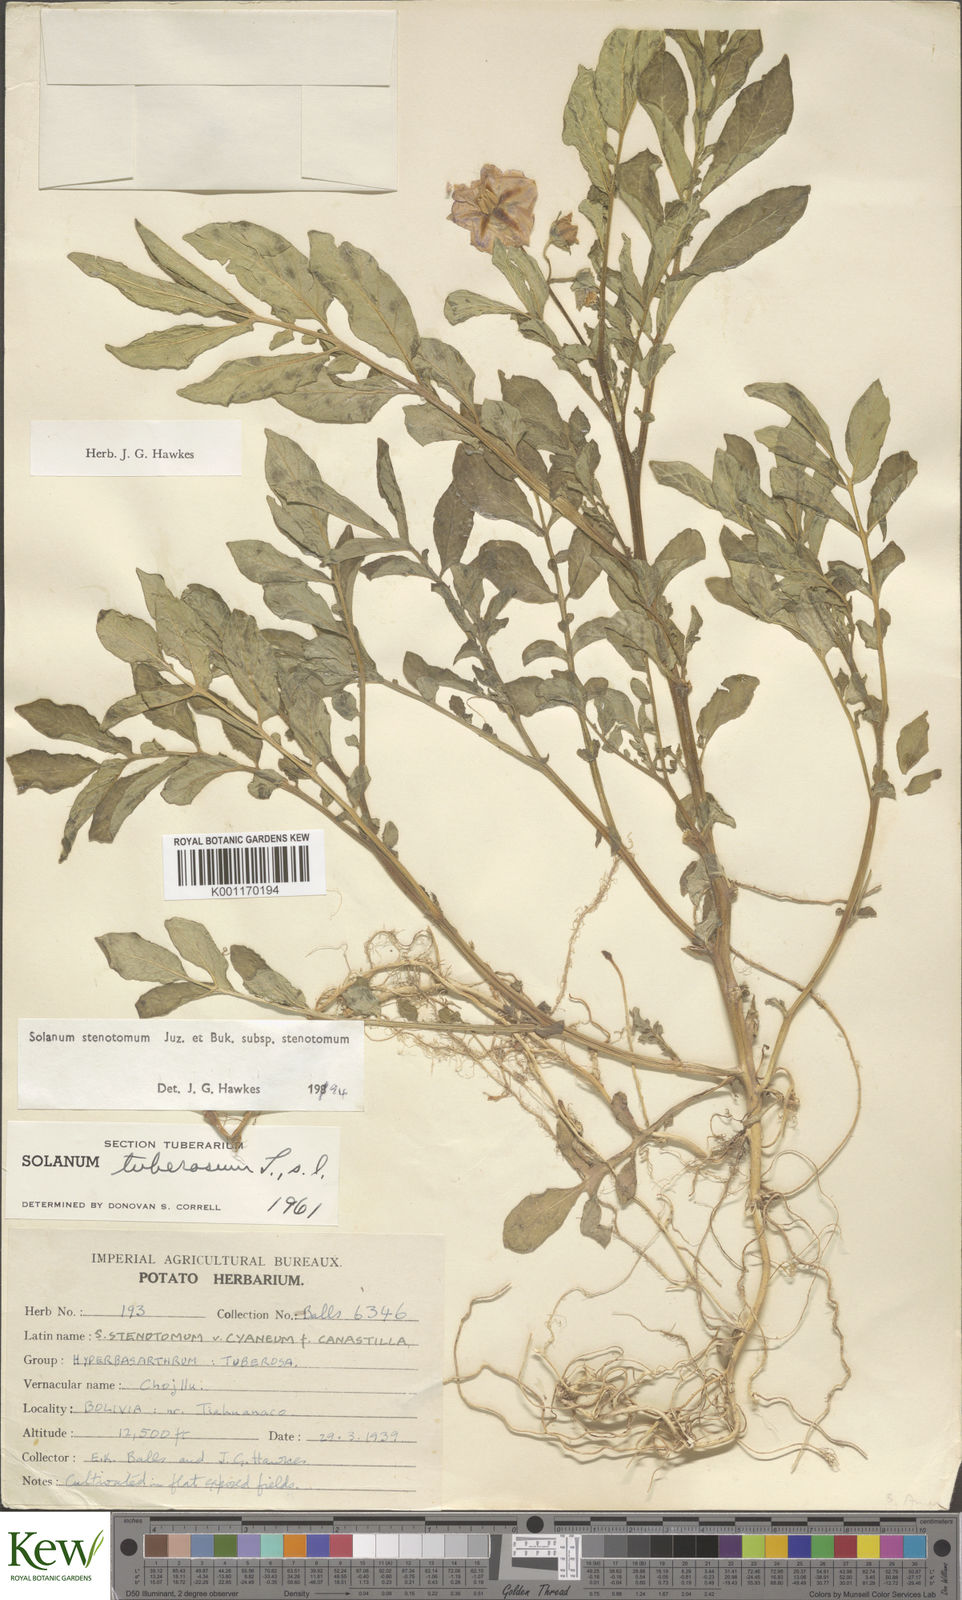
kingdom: Plantae
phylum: Tracheophyta
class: Magnoliopsida
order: Solanales
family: Solanaceae
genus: Solanum
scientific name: Solanum tuberosum
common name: Potato
